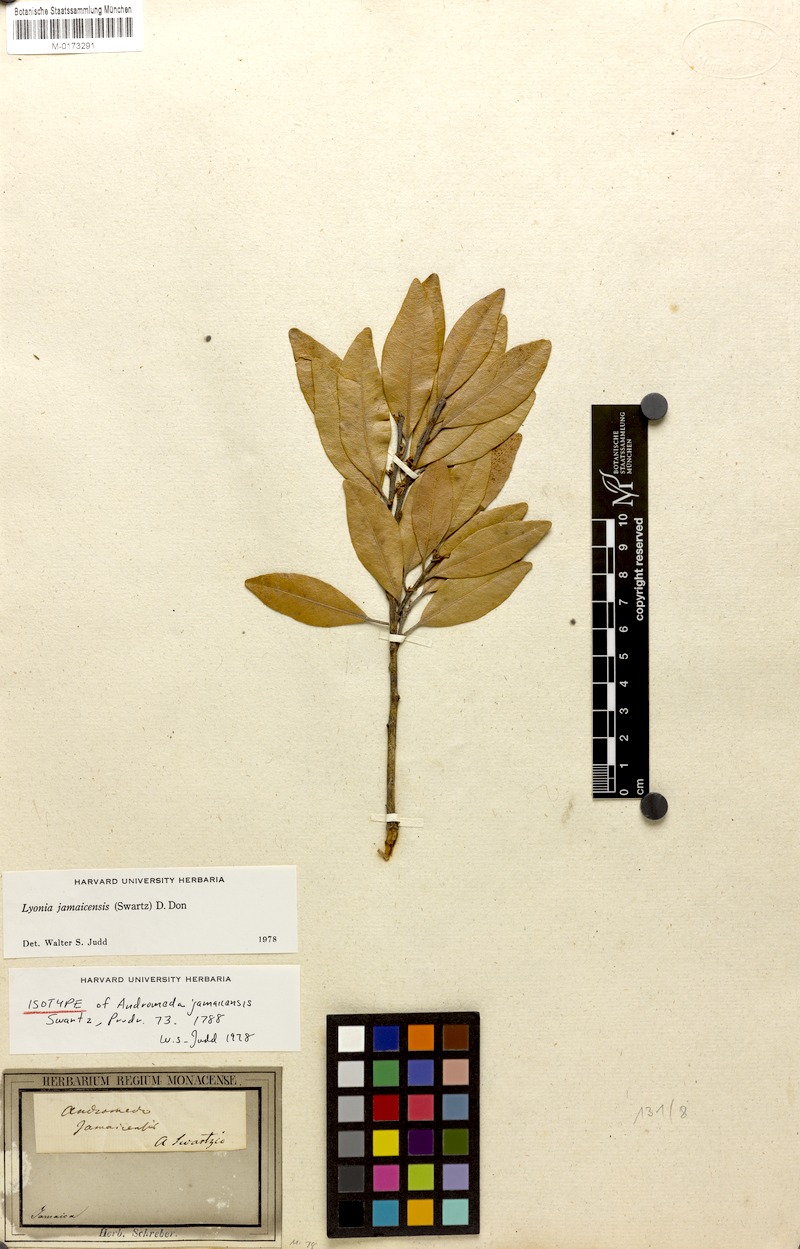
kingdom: Plantae
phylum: Tracheophyta
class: Magnoliopsida
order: Ericales
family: Ericaceae
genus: Lyonia
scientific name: Lyonia jamaicensis
